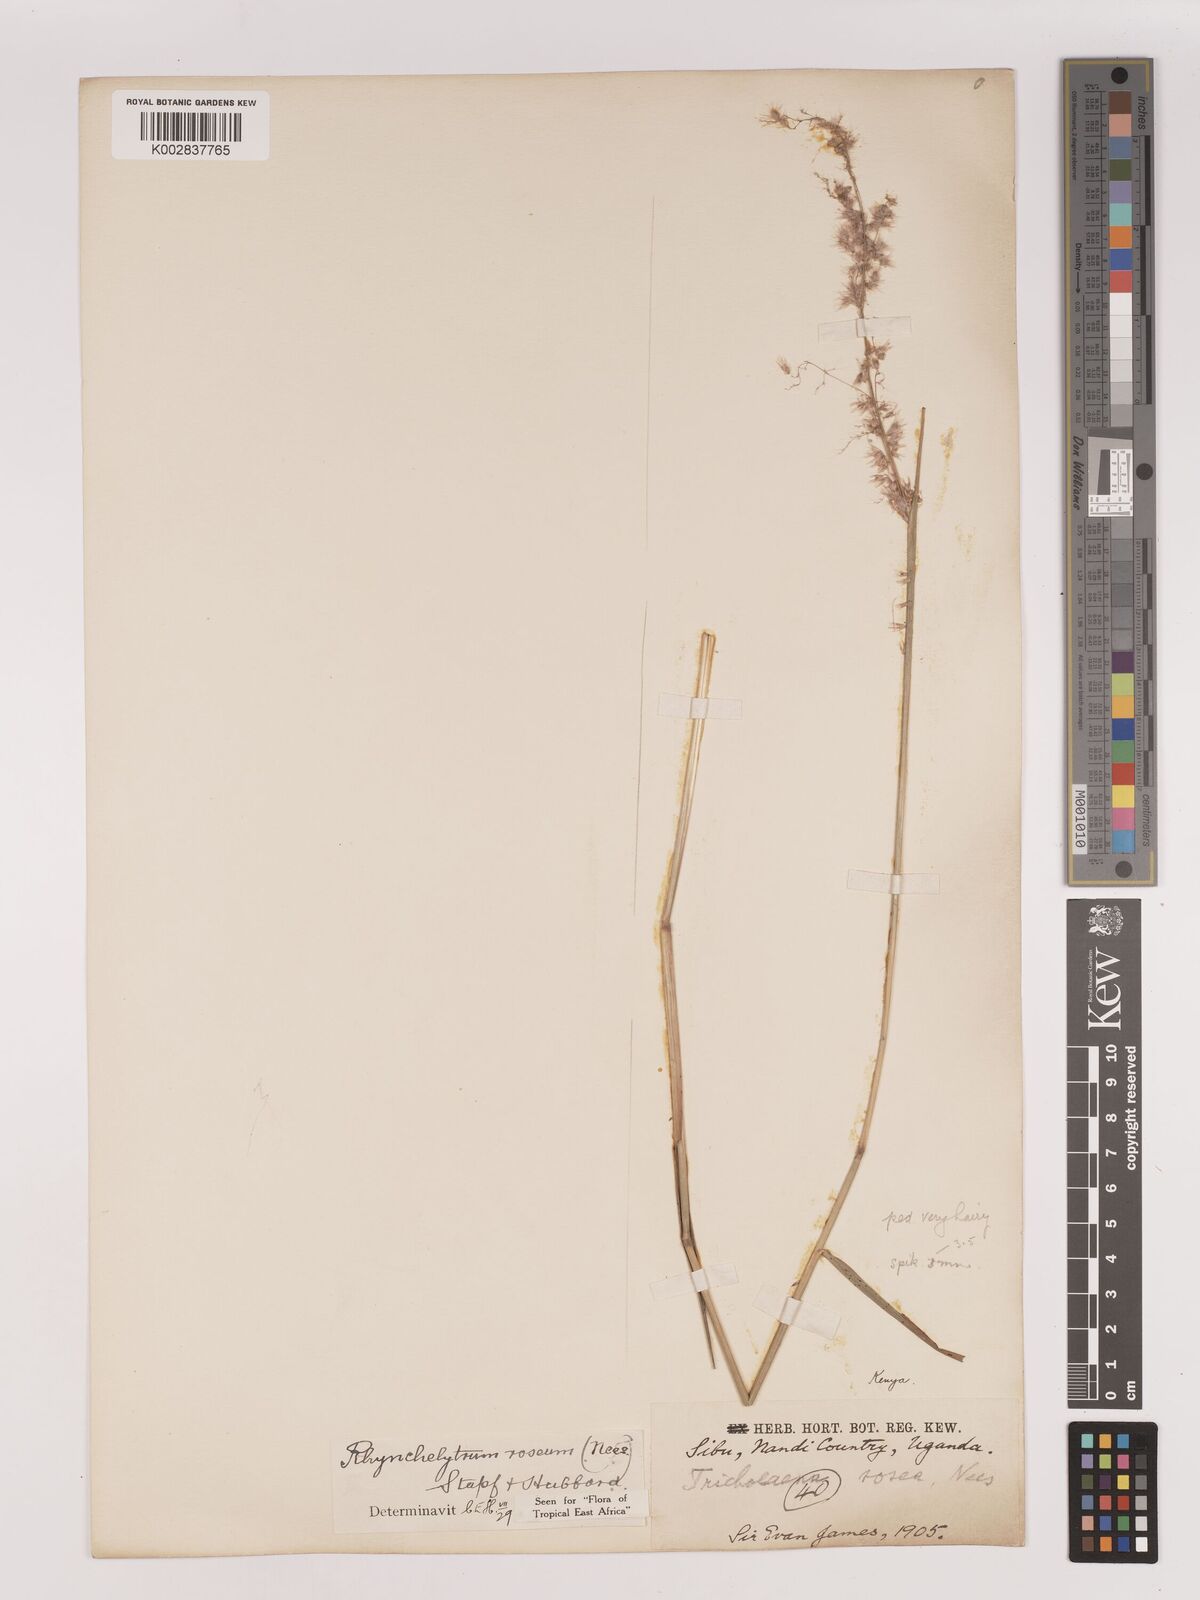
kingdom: Plantae
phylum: Tracheophyta
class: Liliopsida
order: Poales
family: Poaceae
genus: Melinis
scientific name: Melinis repens
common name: Rose natal grass
